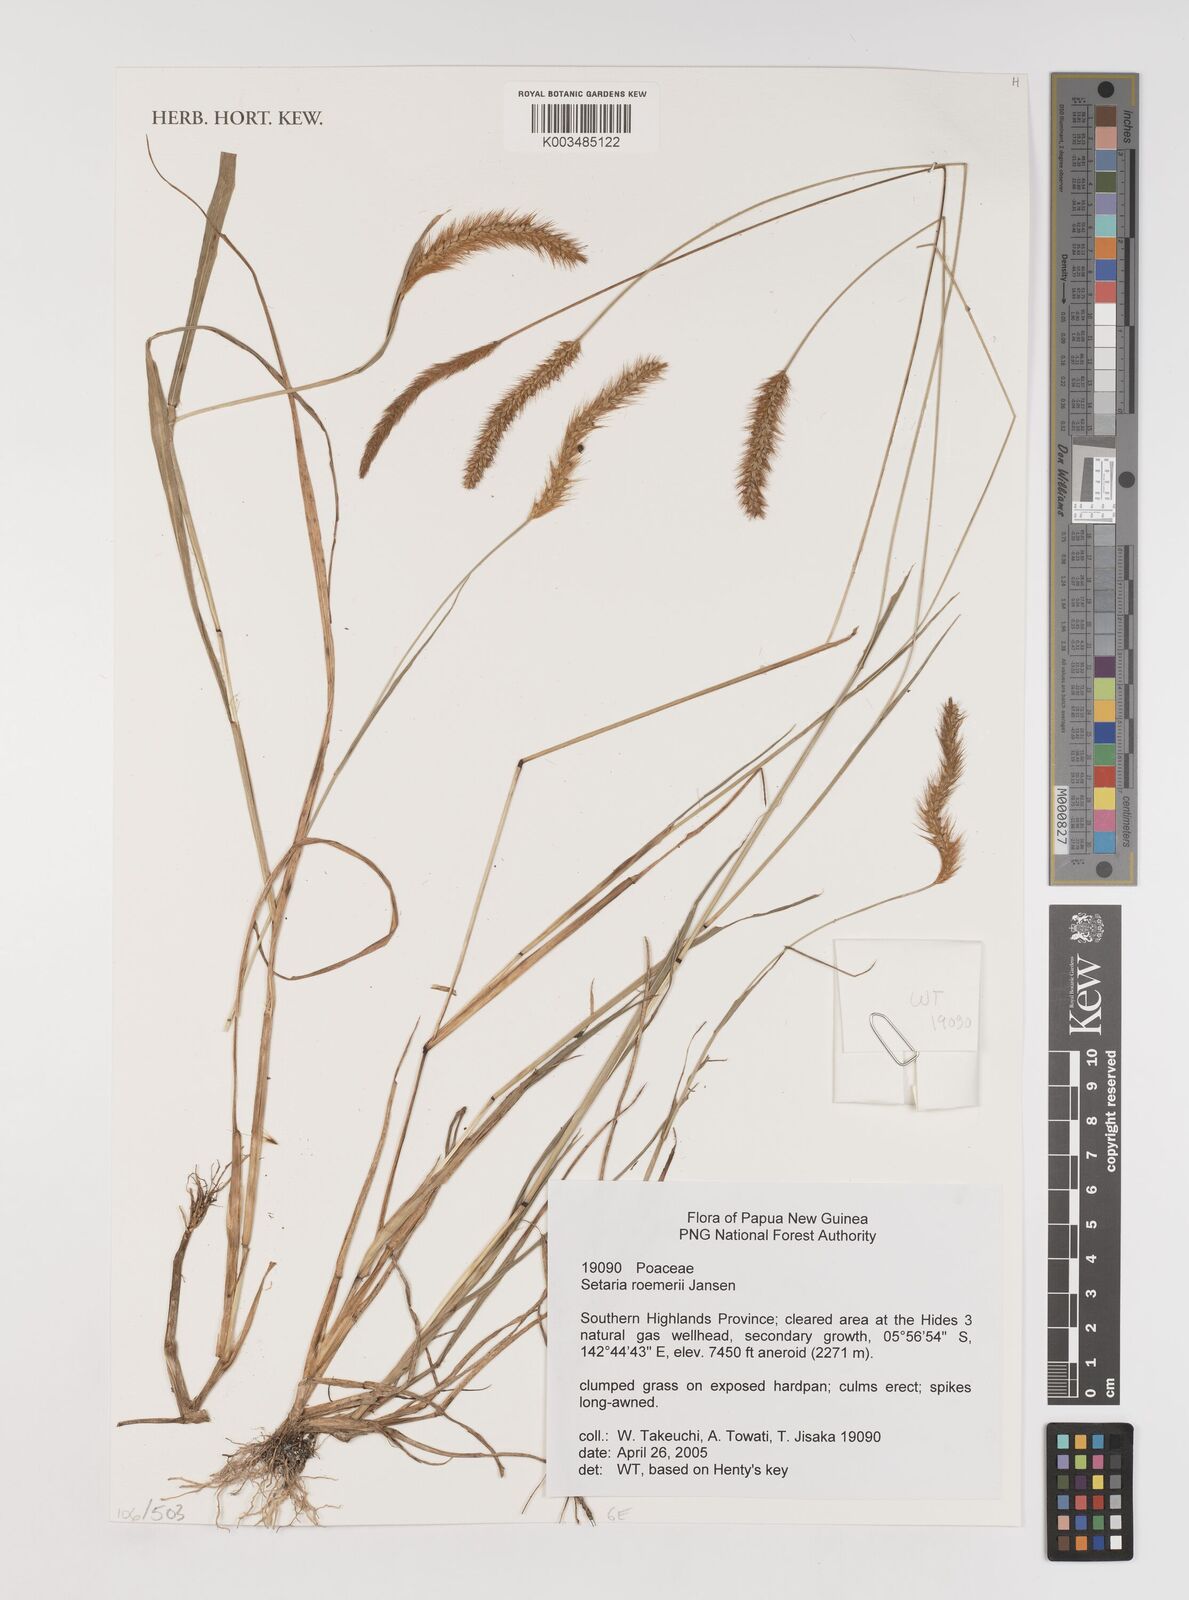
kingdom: Plantae
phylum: Tracheophyta
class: Liliopsida
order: Poales
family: Poaceae
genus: Setaria
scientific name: Setaria roemeri
